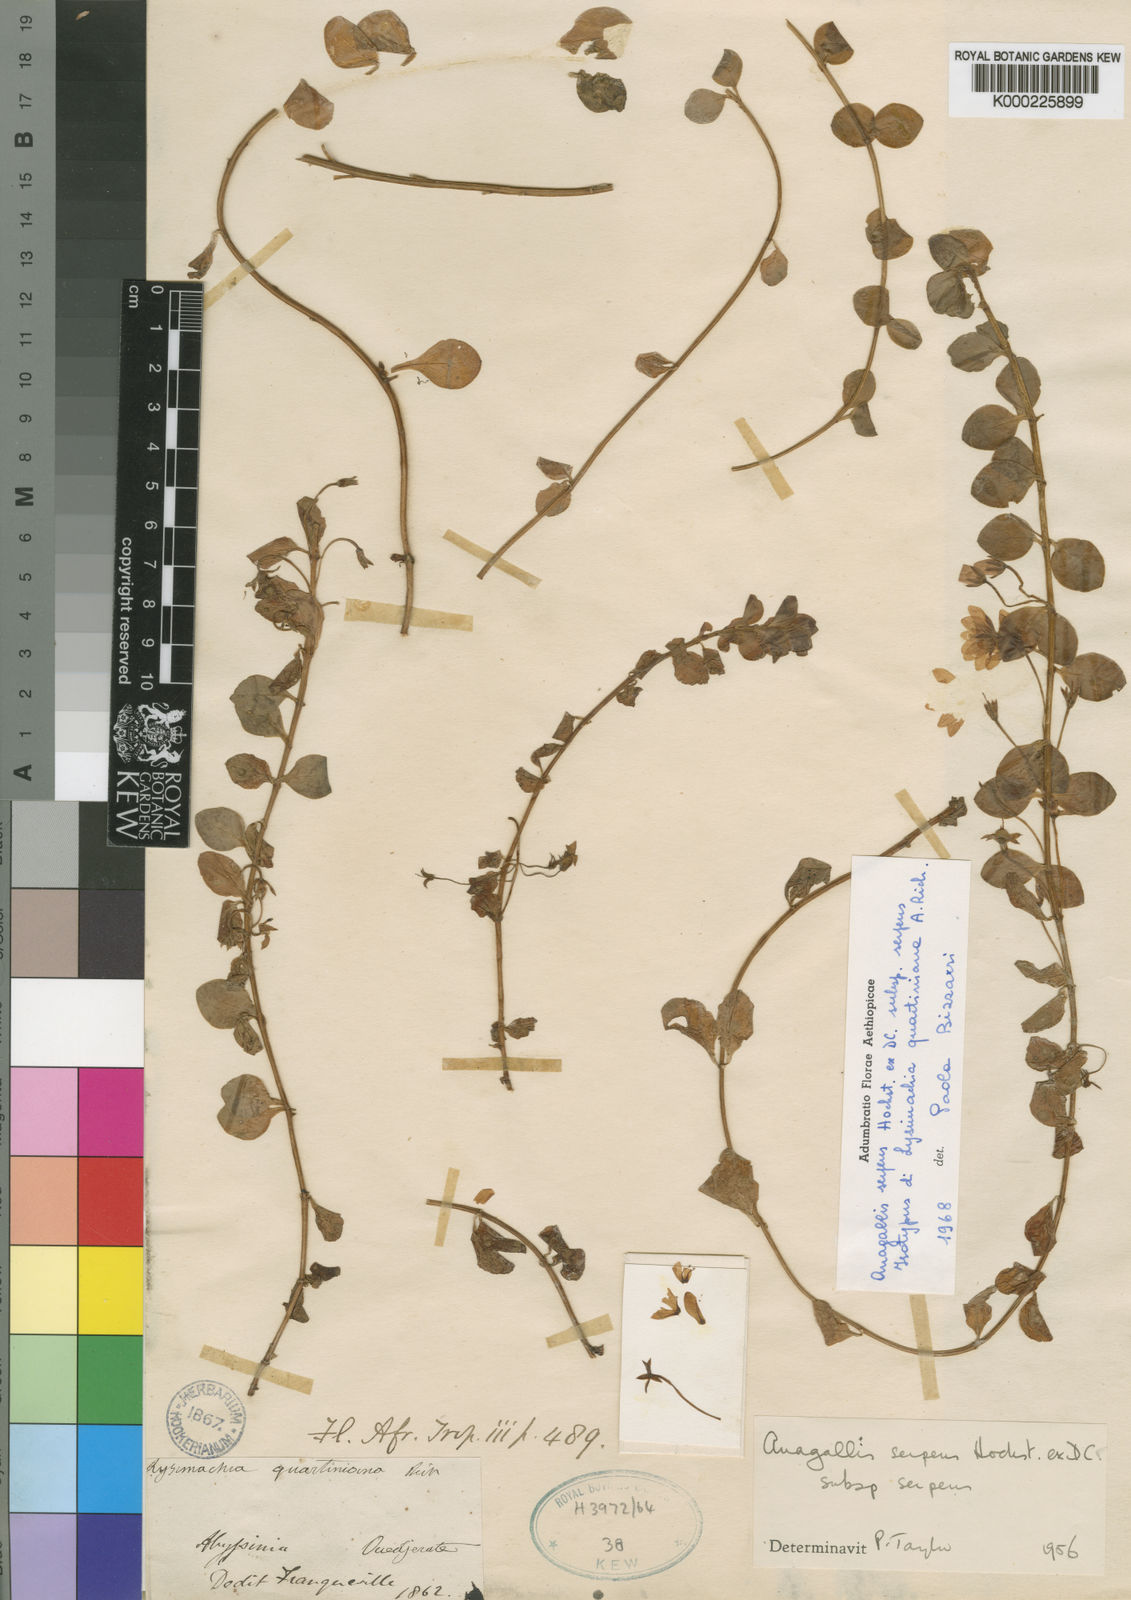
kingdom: Plantae
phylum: Tracheophyta
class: Magnoliopsida
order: Ericales
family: Primulaceae
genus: Lysimachia
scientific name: Lysimachia Anagallis spec
